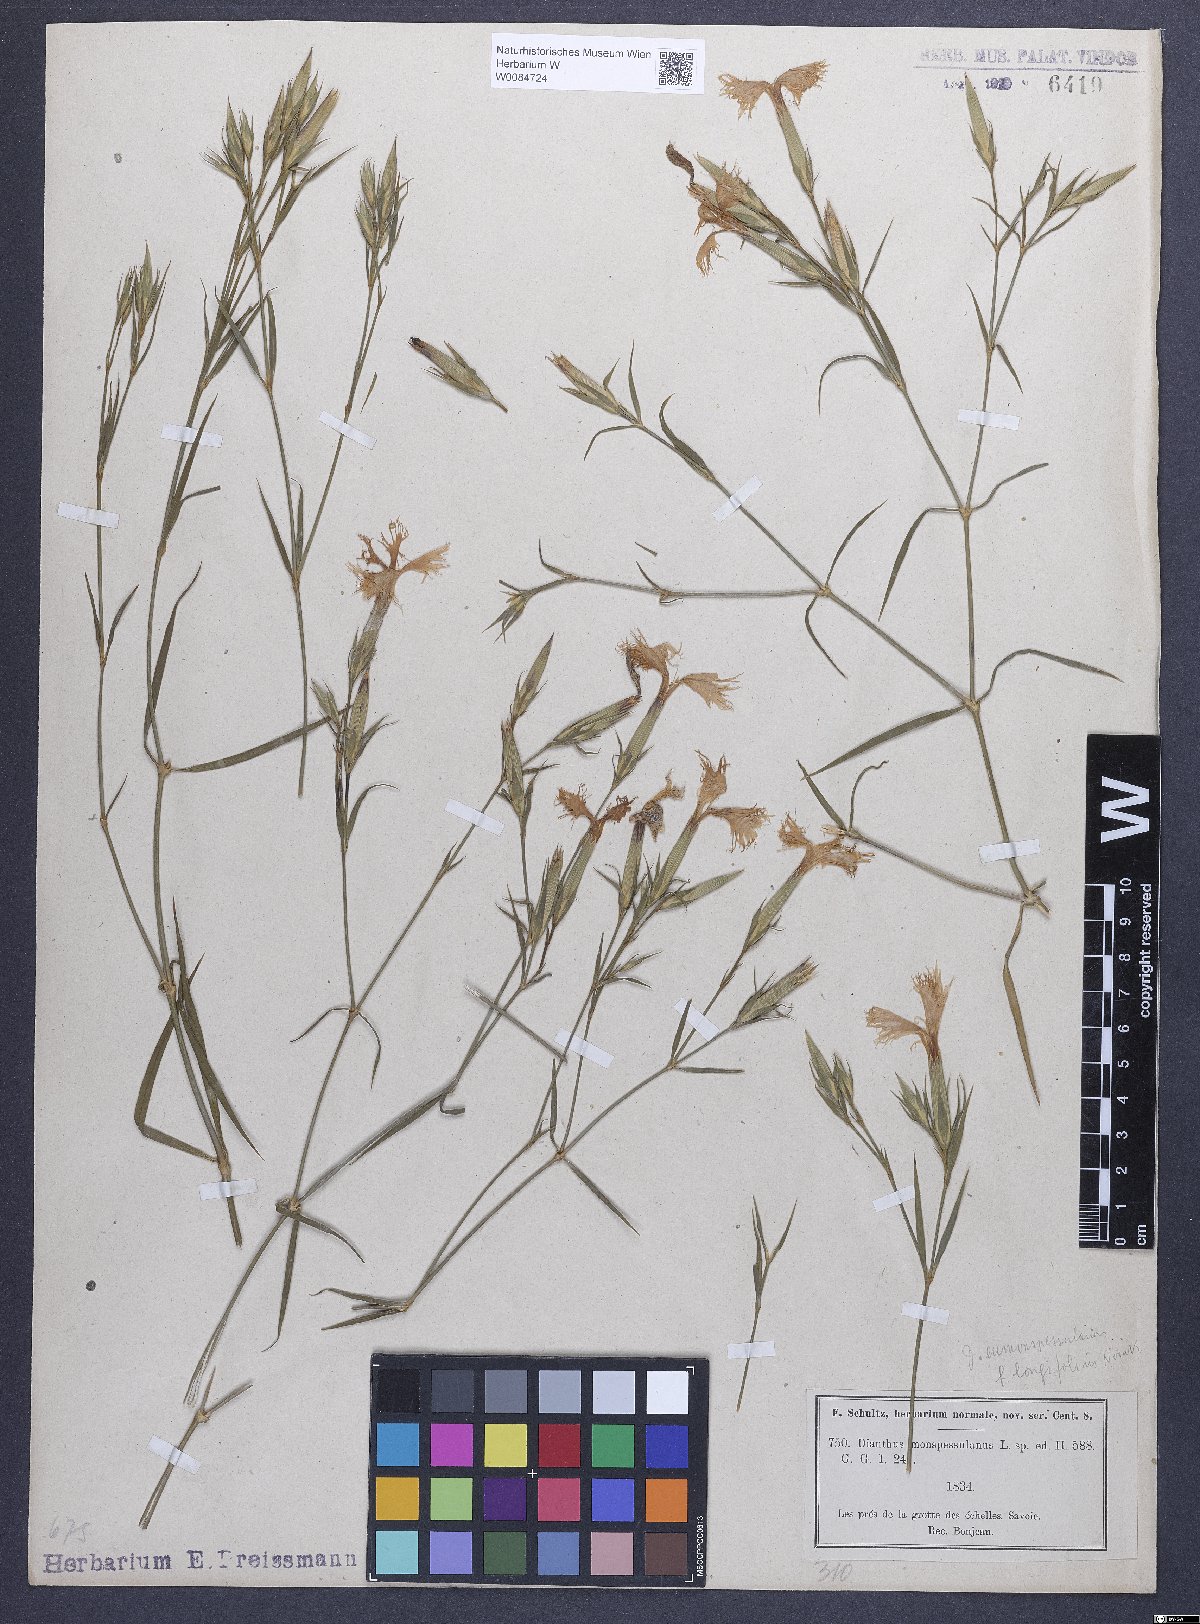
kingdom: Plantae
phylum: Tracheophyta
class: Magnoliopsida
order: Caryophyllales
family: Caryophyllaceae
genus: Dianthus
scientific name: Dianthus hyssopifolius
